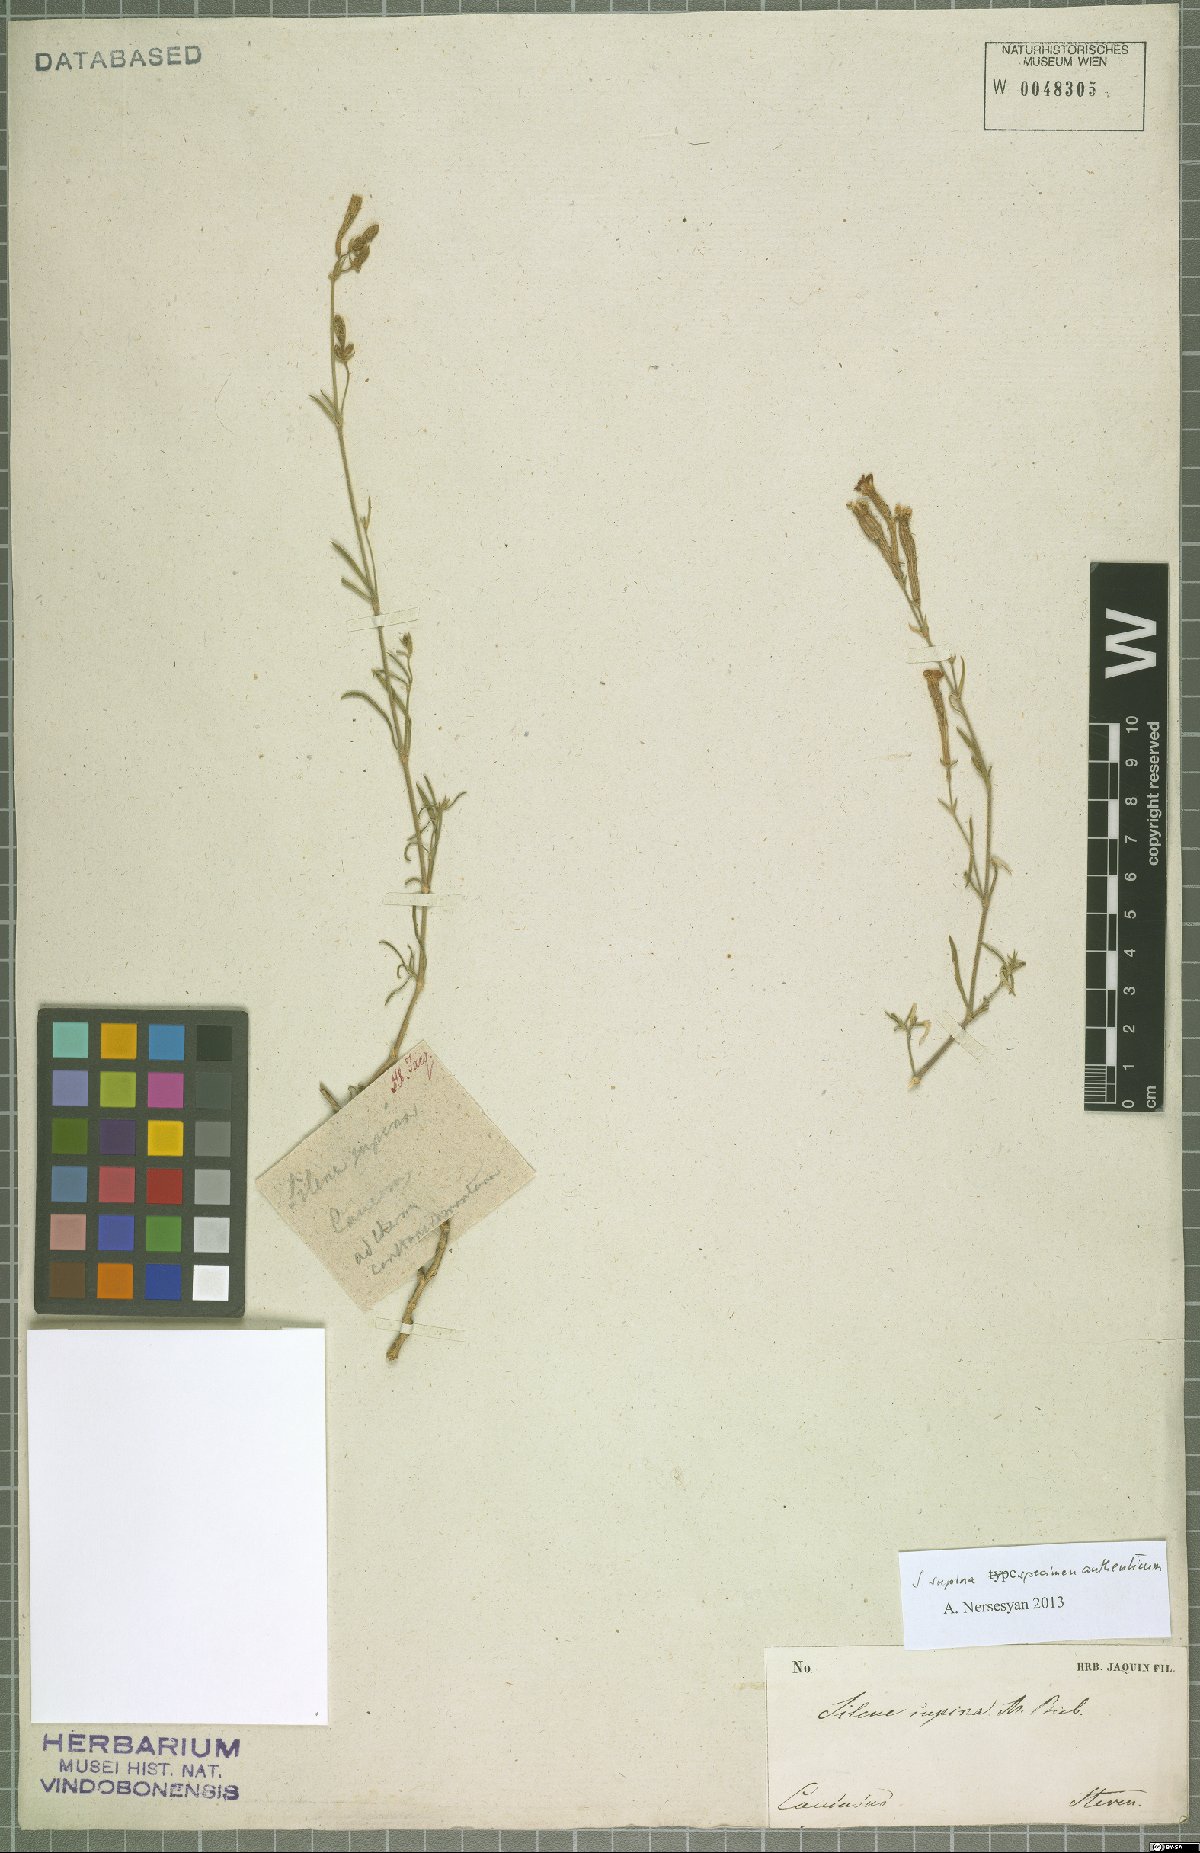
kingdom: Plantae
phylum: Tracheophyta
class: Magnoliopsida
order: Caryophyllales
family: Caryophyllaceae
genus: Silene
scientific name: Silene supina
